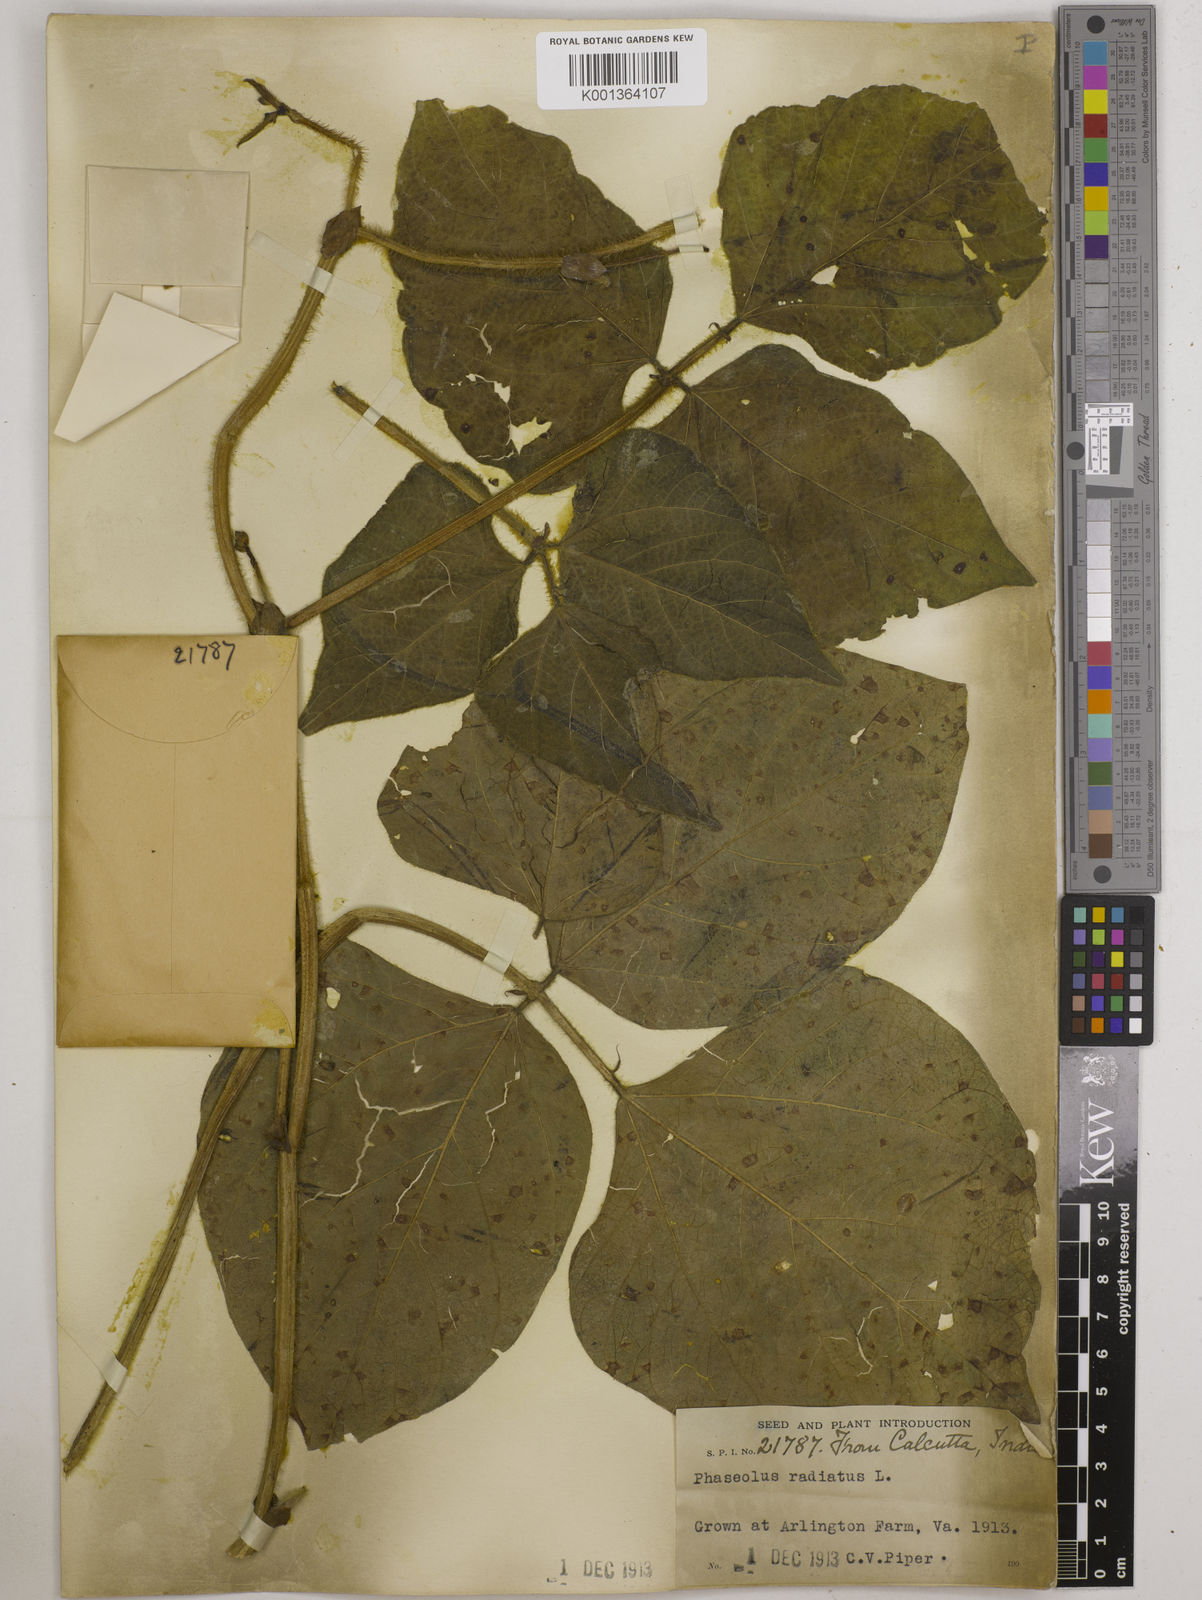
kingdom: Plantae
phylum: Tracheophyta
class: Magnoliopsida
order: Fabales
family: Fabaceae
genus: Vigna
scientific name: Vigna radiata
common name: Mung-bean
